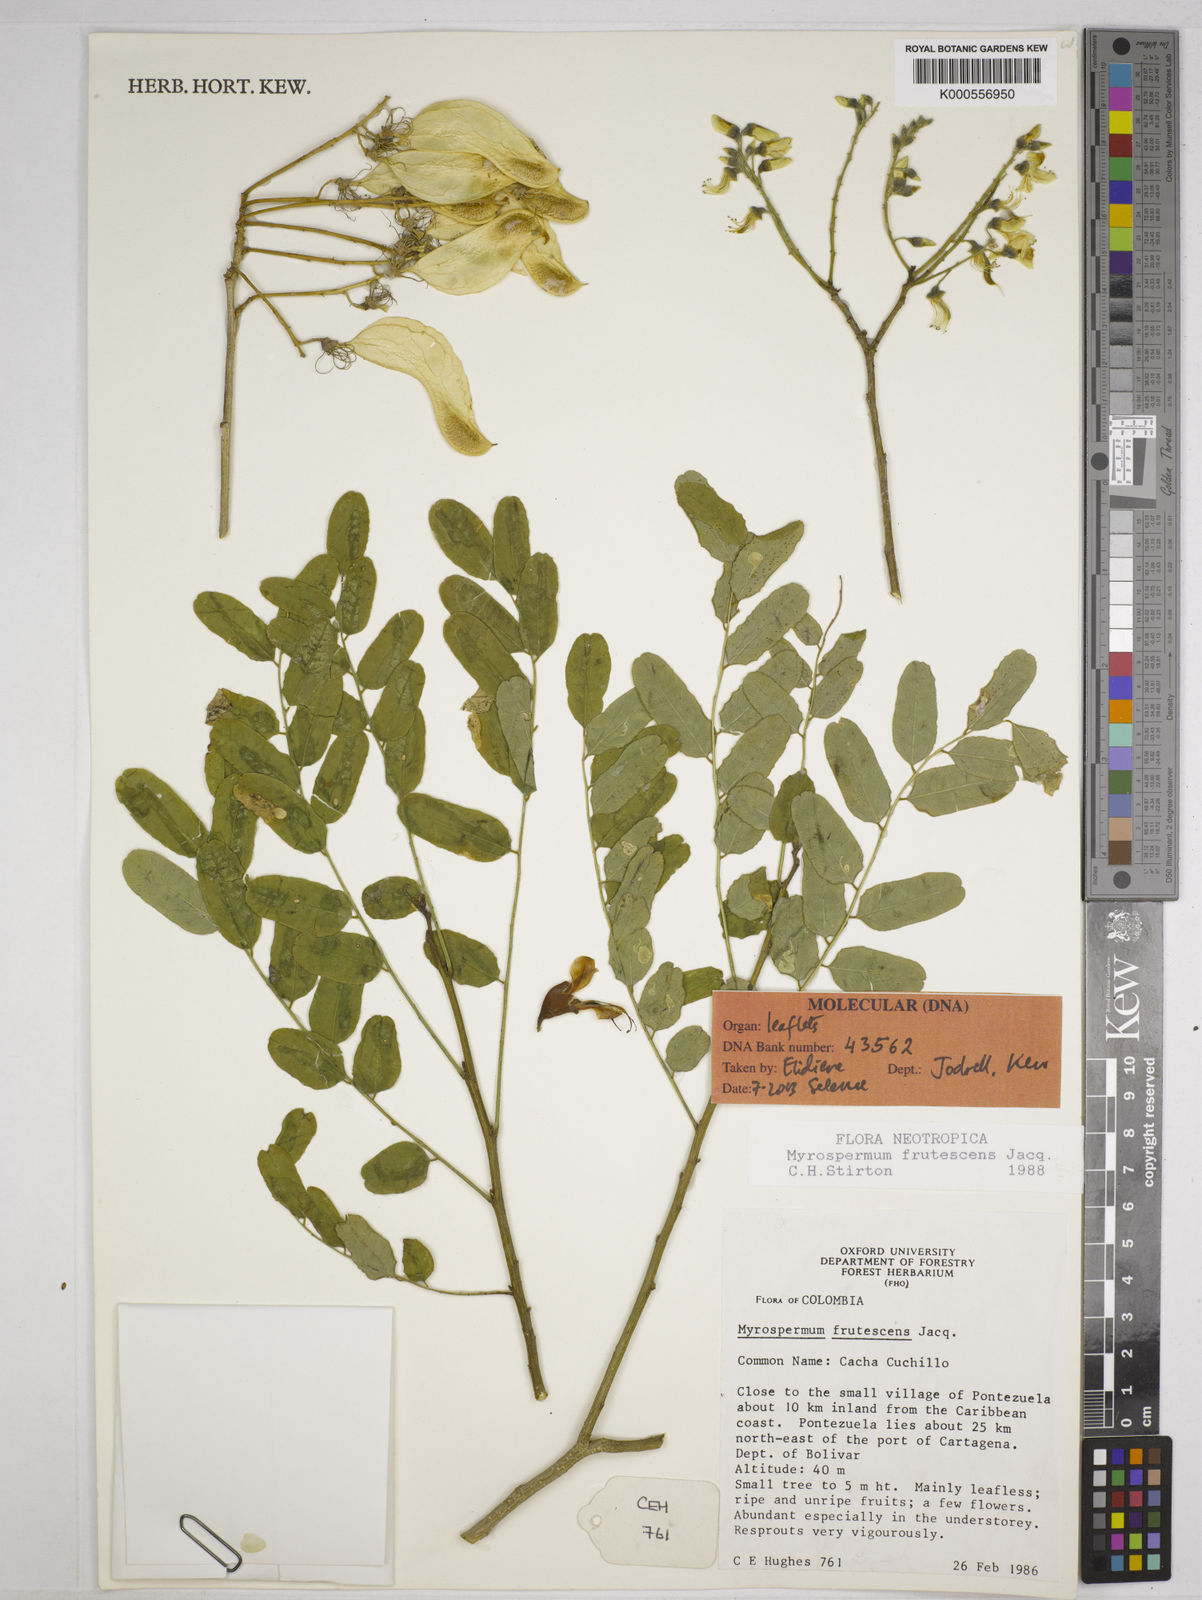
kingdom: Plantae
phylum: Tracheophyta
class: Magnoliopsida
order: Fabales
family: Fabaceae
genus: Myrospermum
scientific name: Myrospermum frutescens
